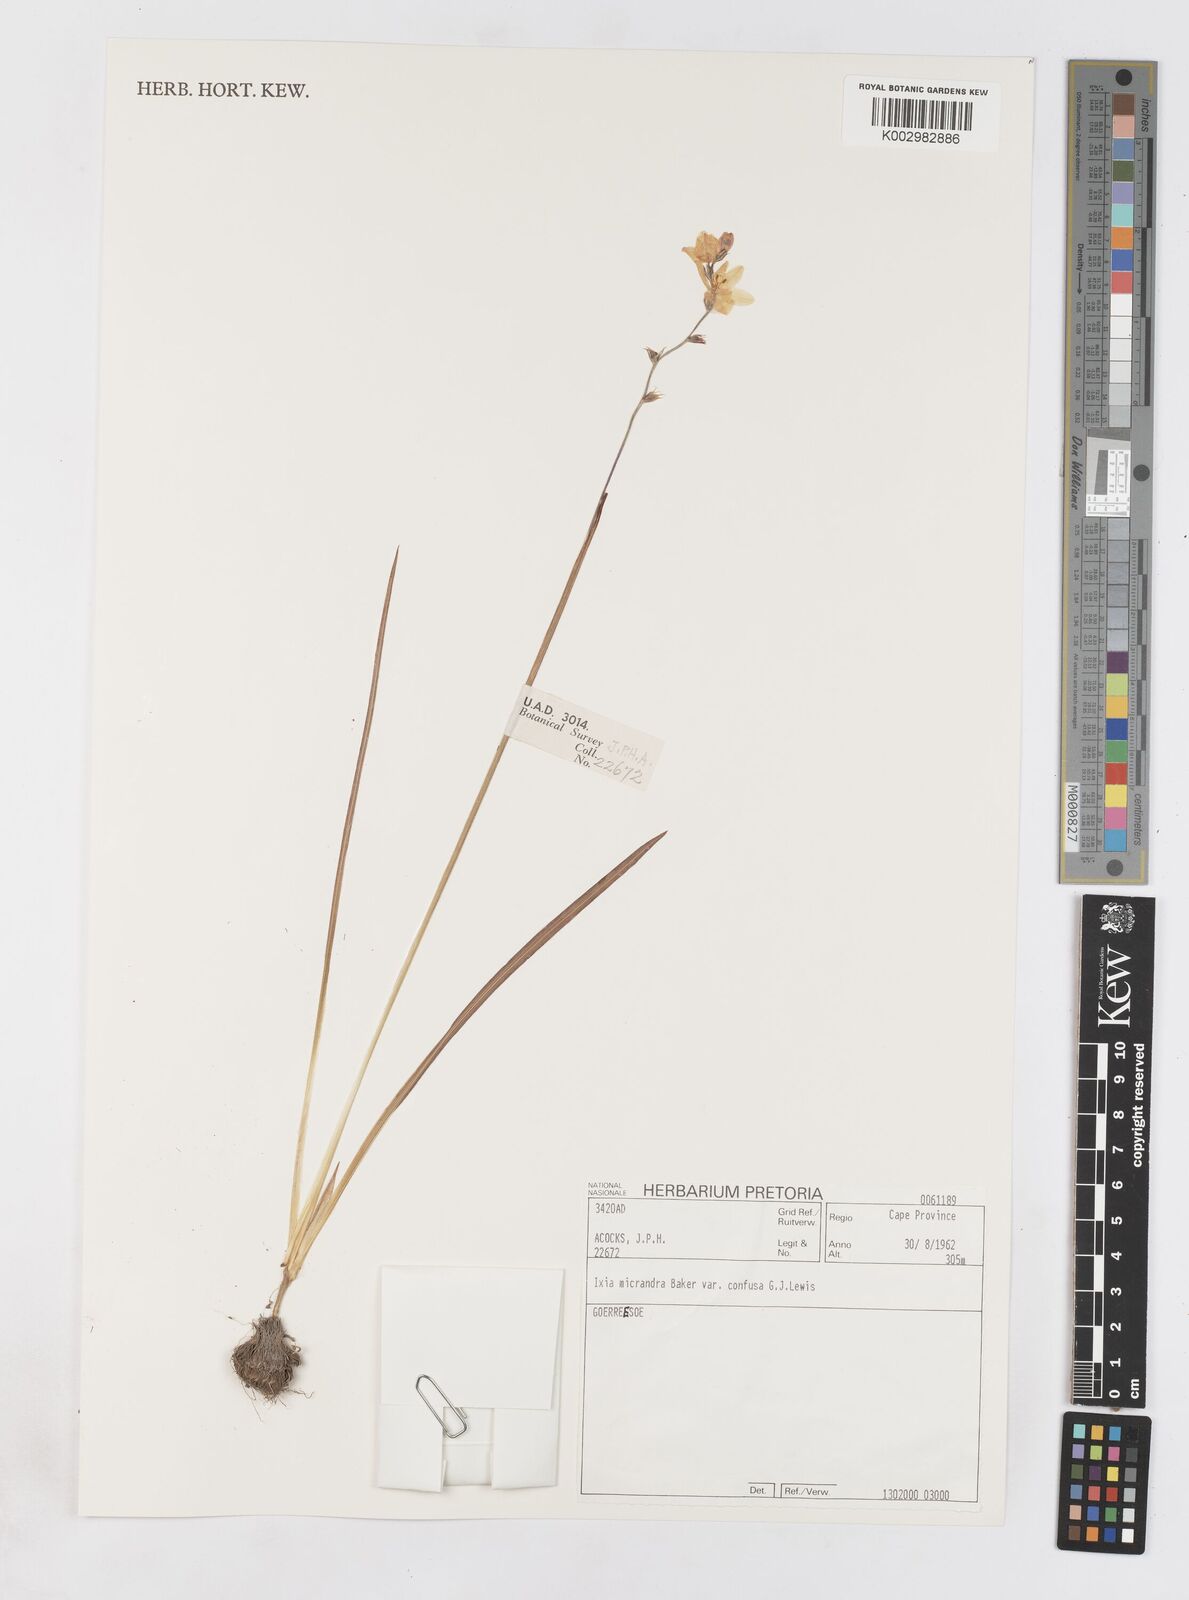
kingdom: Plantae
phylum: Tracheophyta
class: Liliopsida
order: Asparagales
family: Iridaceae
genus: Ixia
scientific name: Ixia confusa
